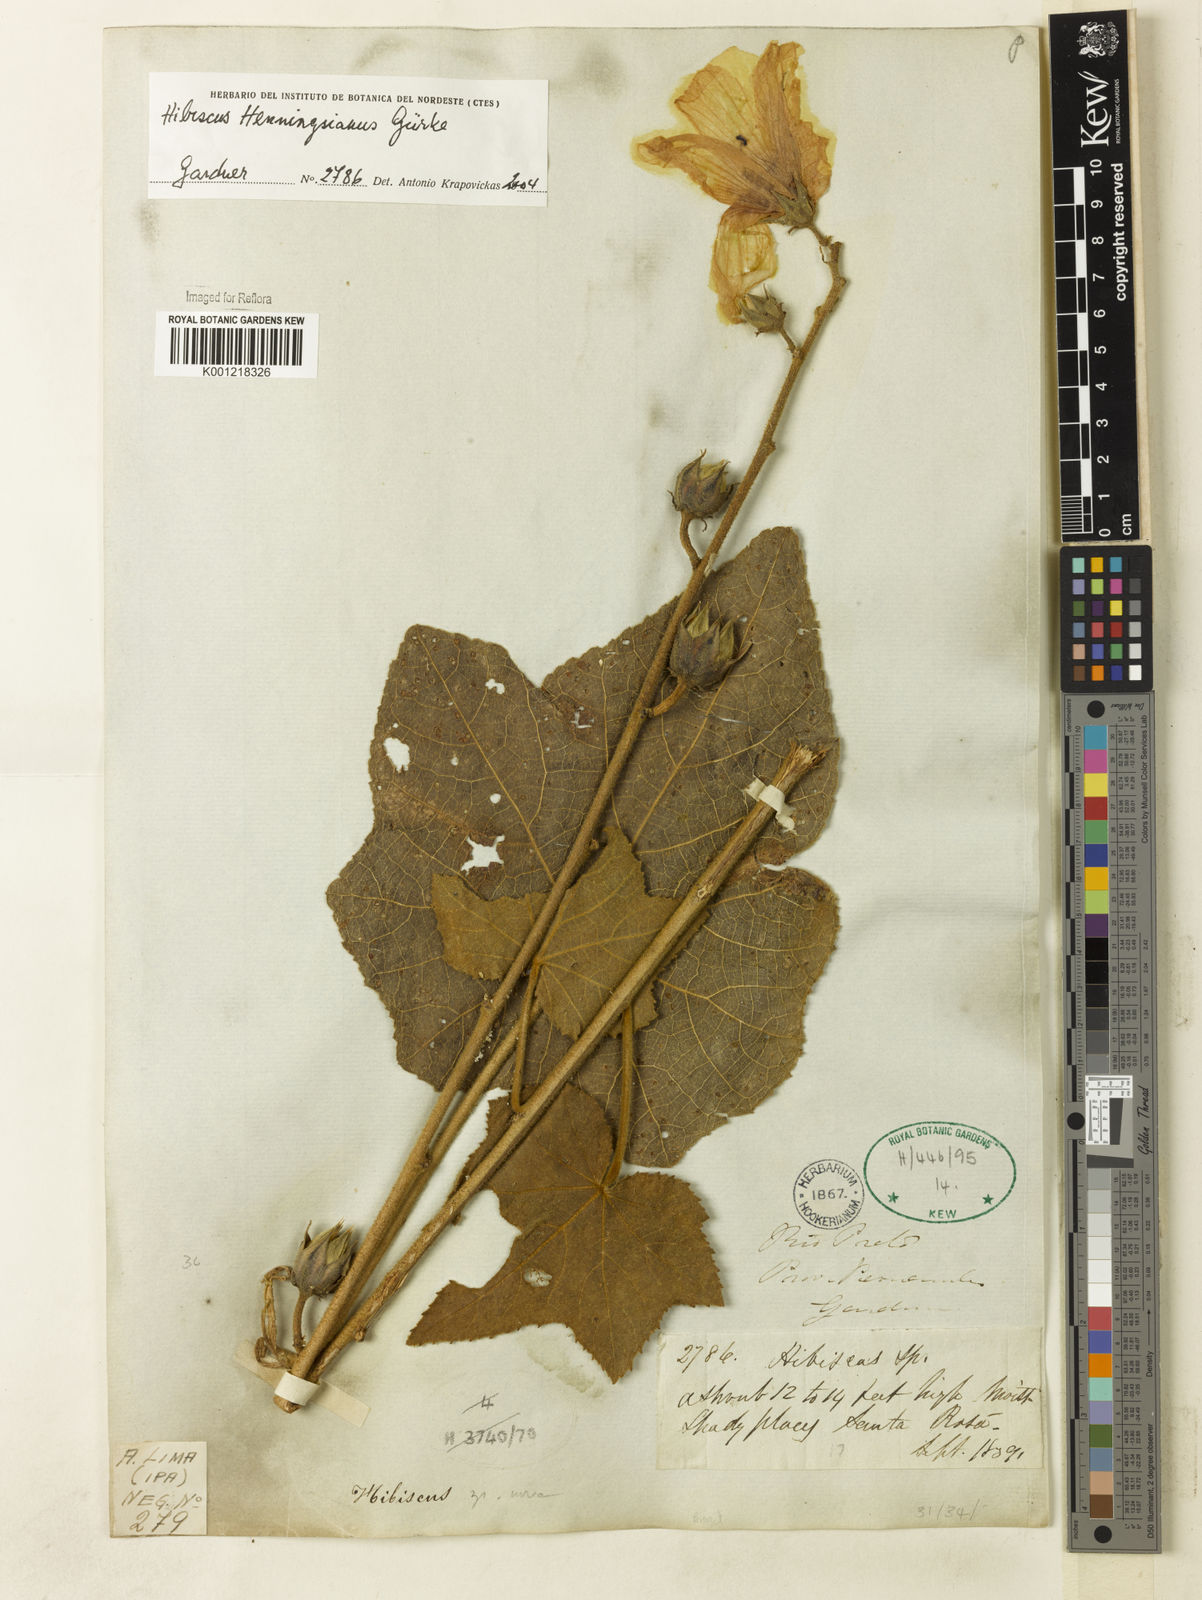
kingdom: Plantae
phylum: Tracheophyta
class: Magnoliopsida
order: Malvales
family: Malvaceae
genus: Hibiscus
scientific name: Hibiscus
